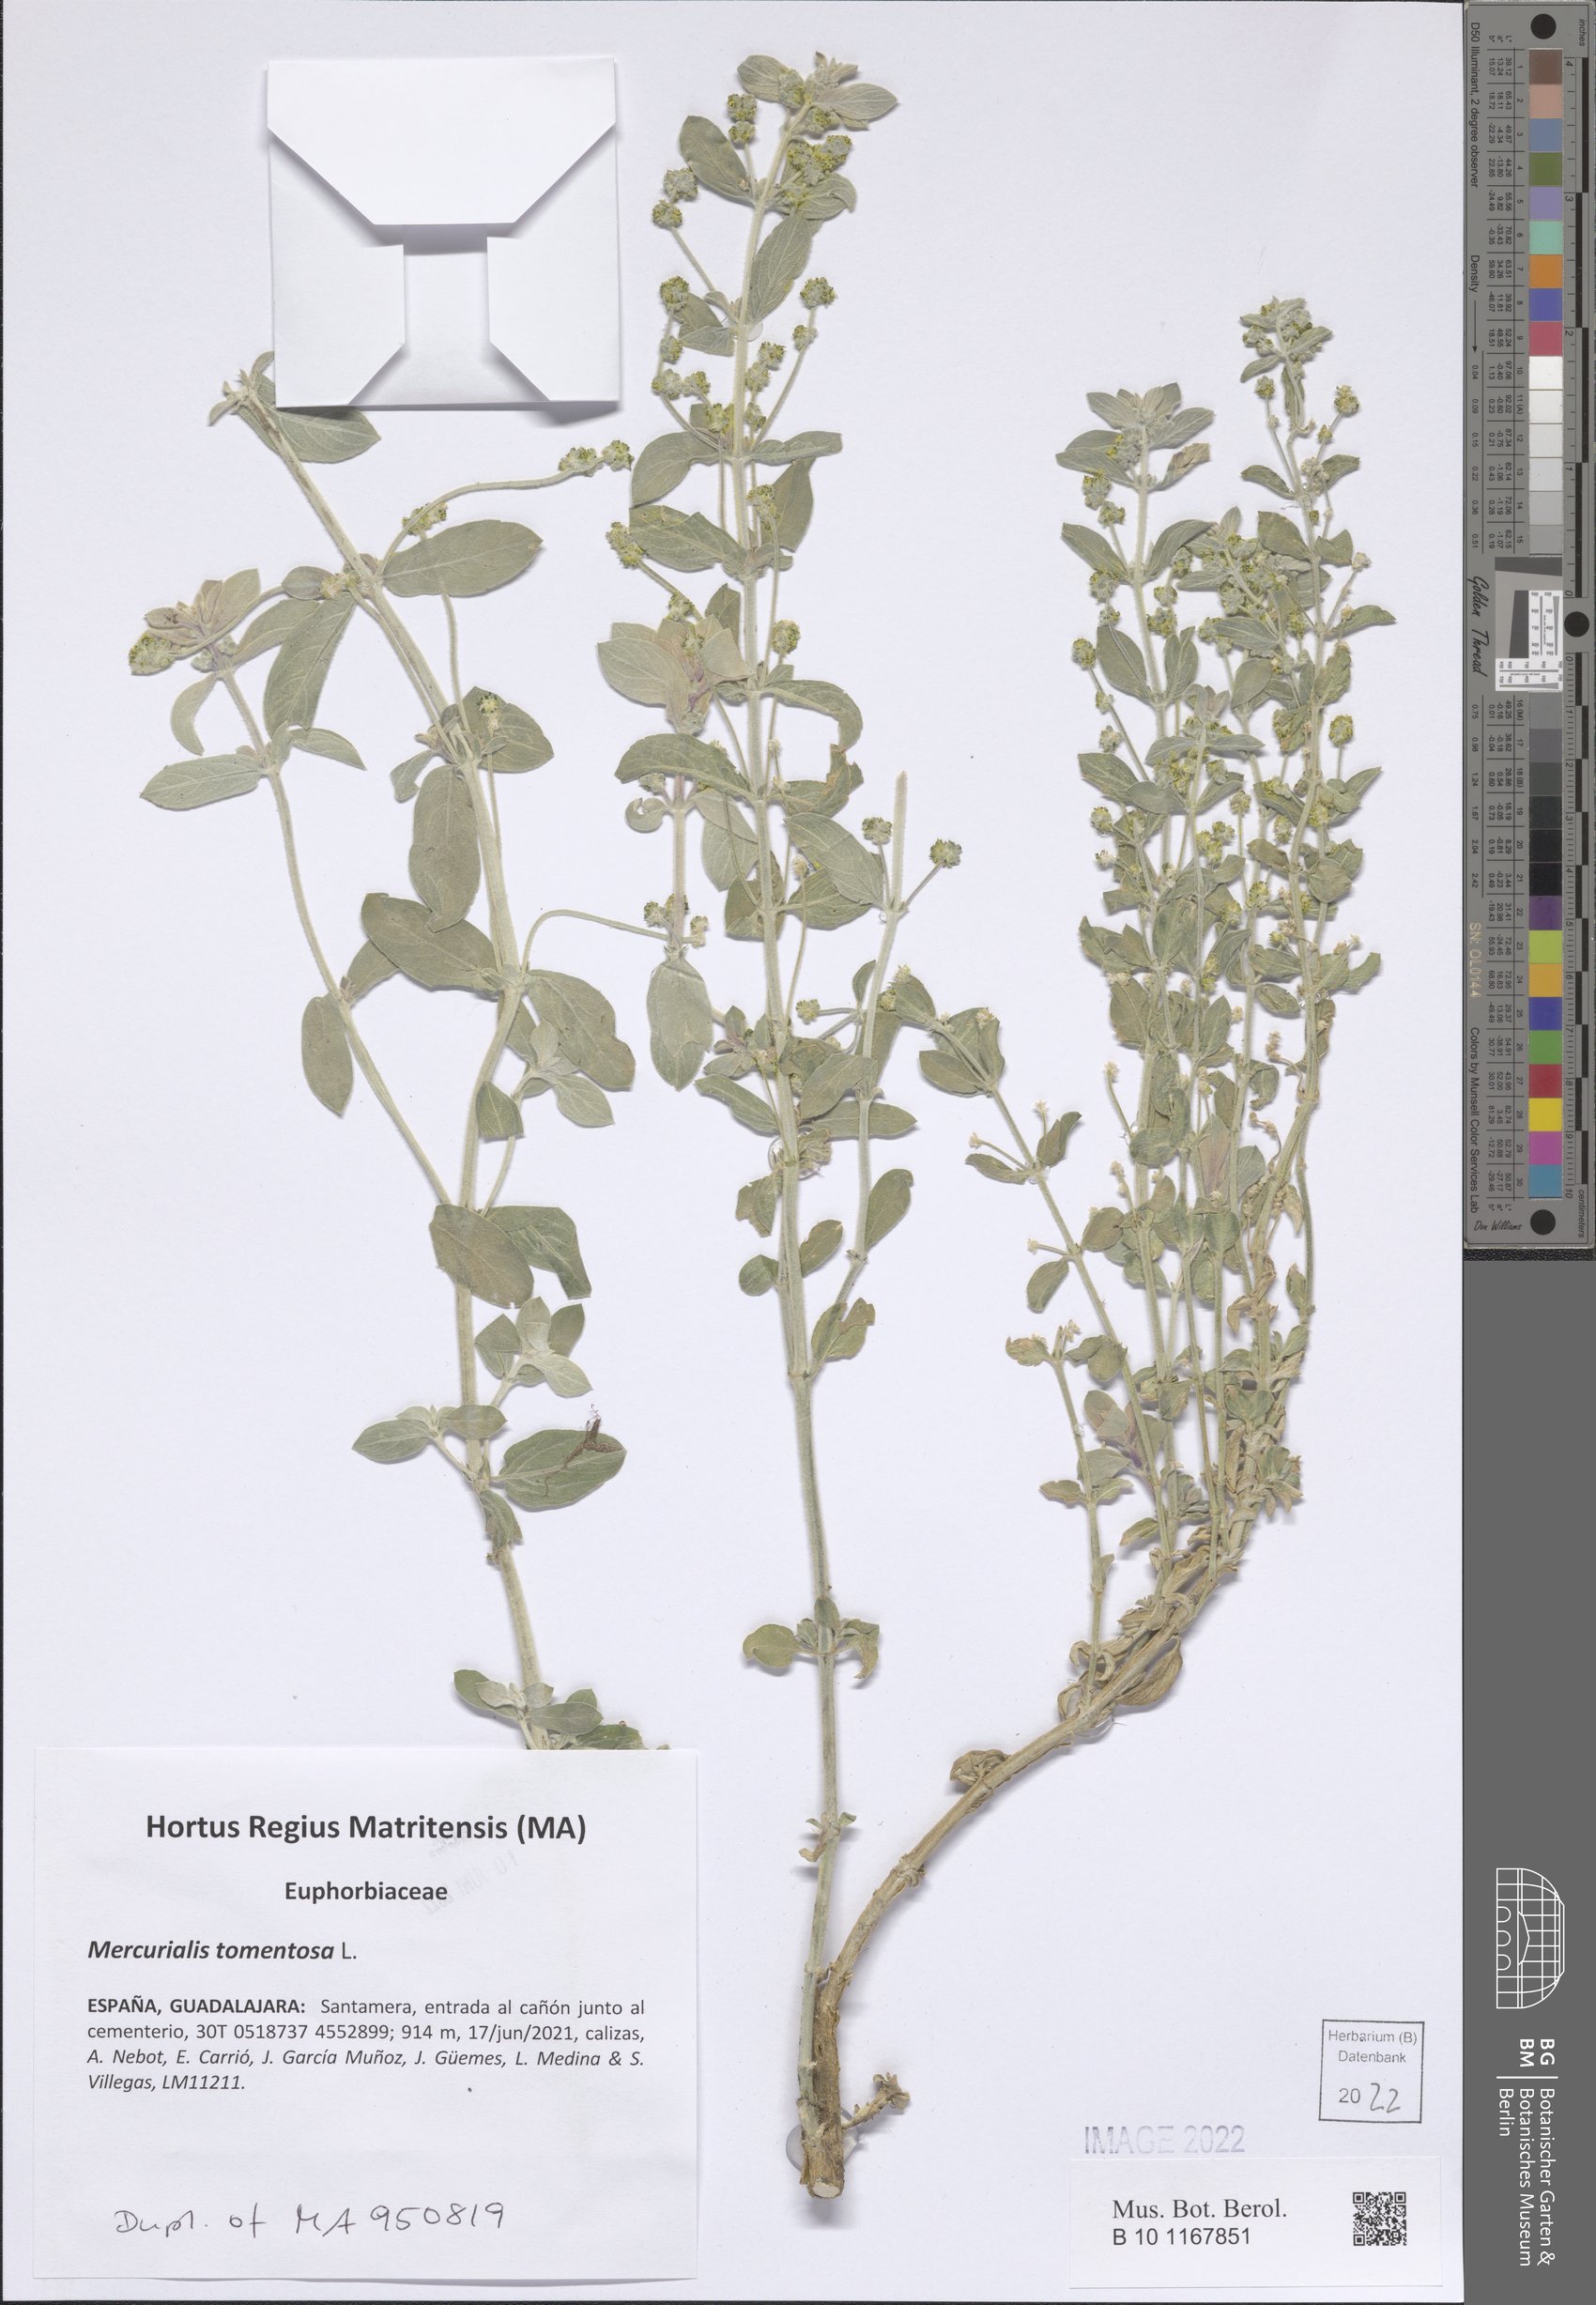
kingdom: Plantae
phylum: Tracheophyta
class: Magnoliopsida
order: Malpighiales
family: Euphorbiaceae
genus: Mercurialis
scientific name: Mercurialis tomentosa
